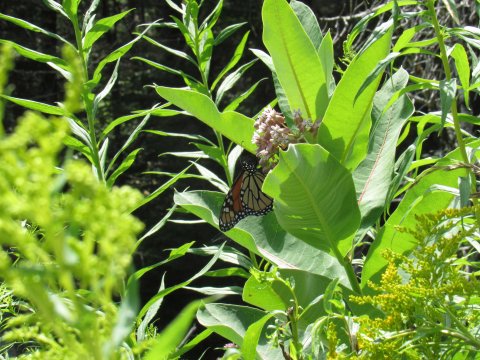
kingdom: Animalia
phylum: Arthropoda
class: Insecta
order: Lepidoptera
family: Nymphalidae
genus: Danaus
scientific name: Danaus plexippus
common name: Monarch
